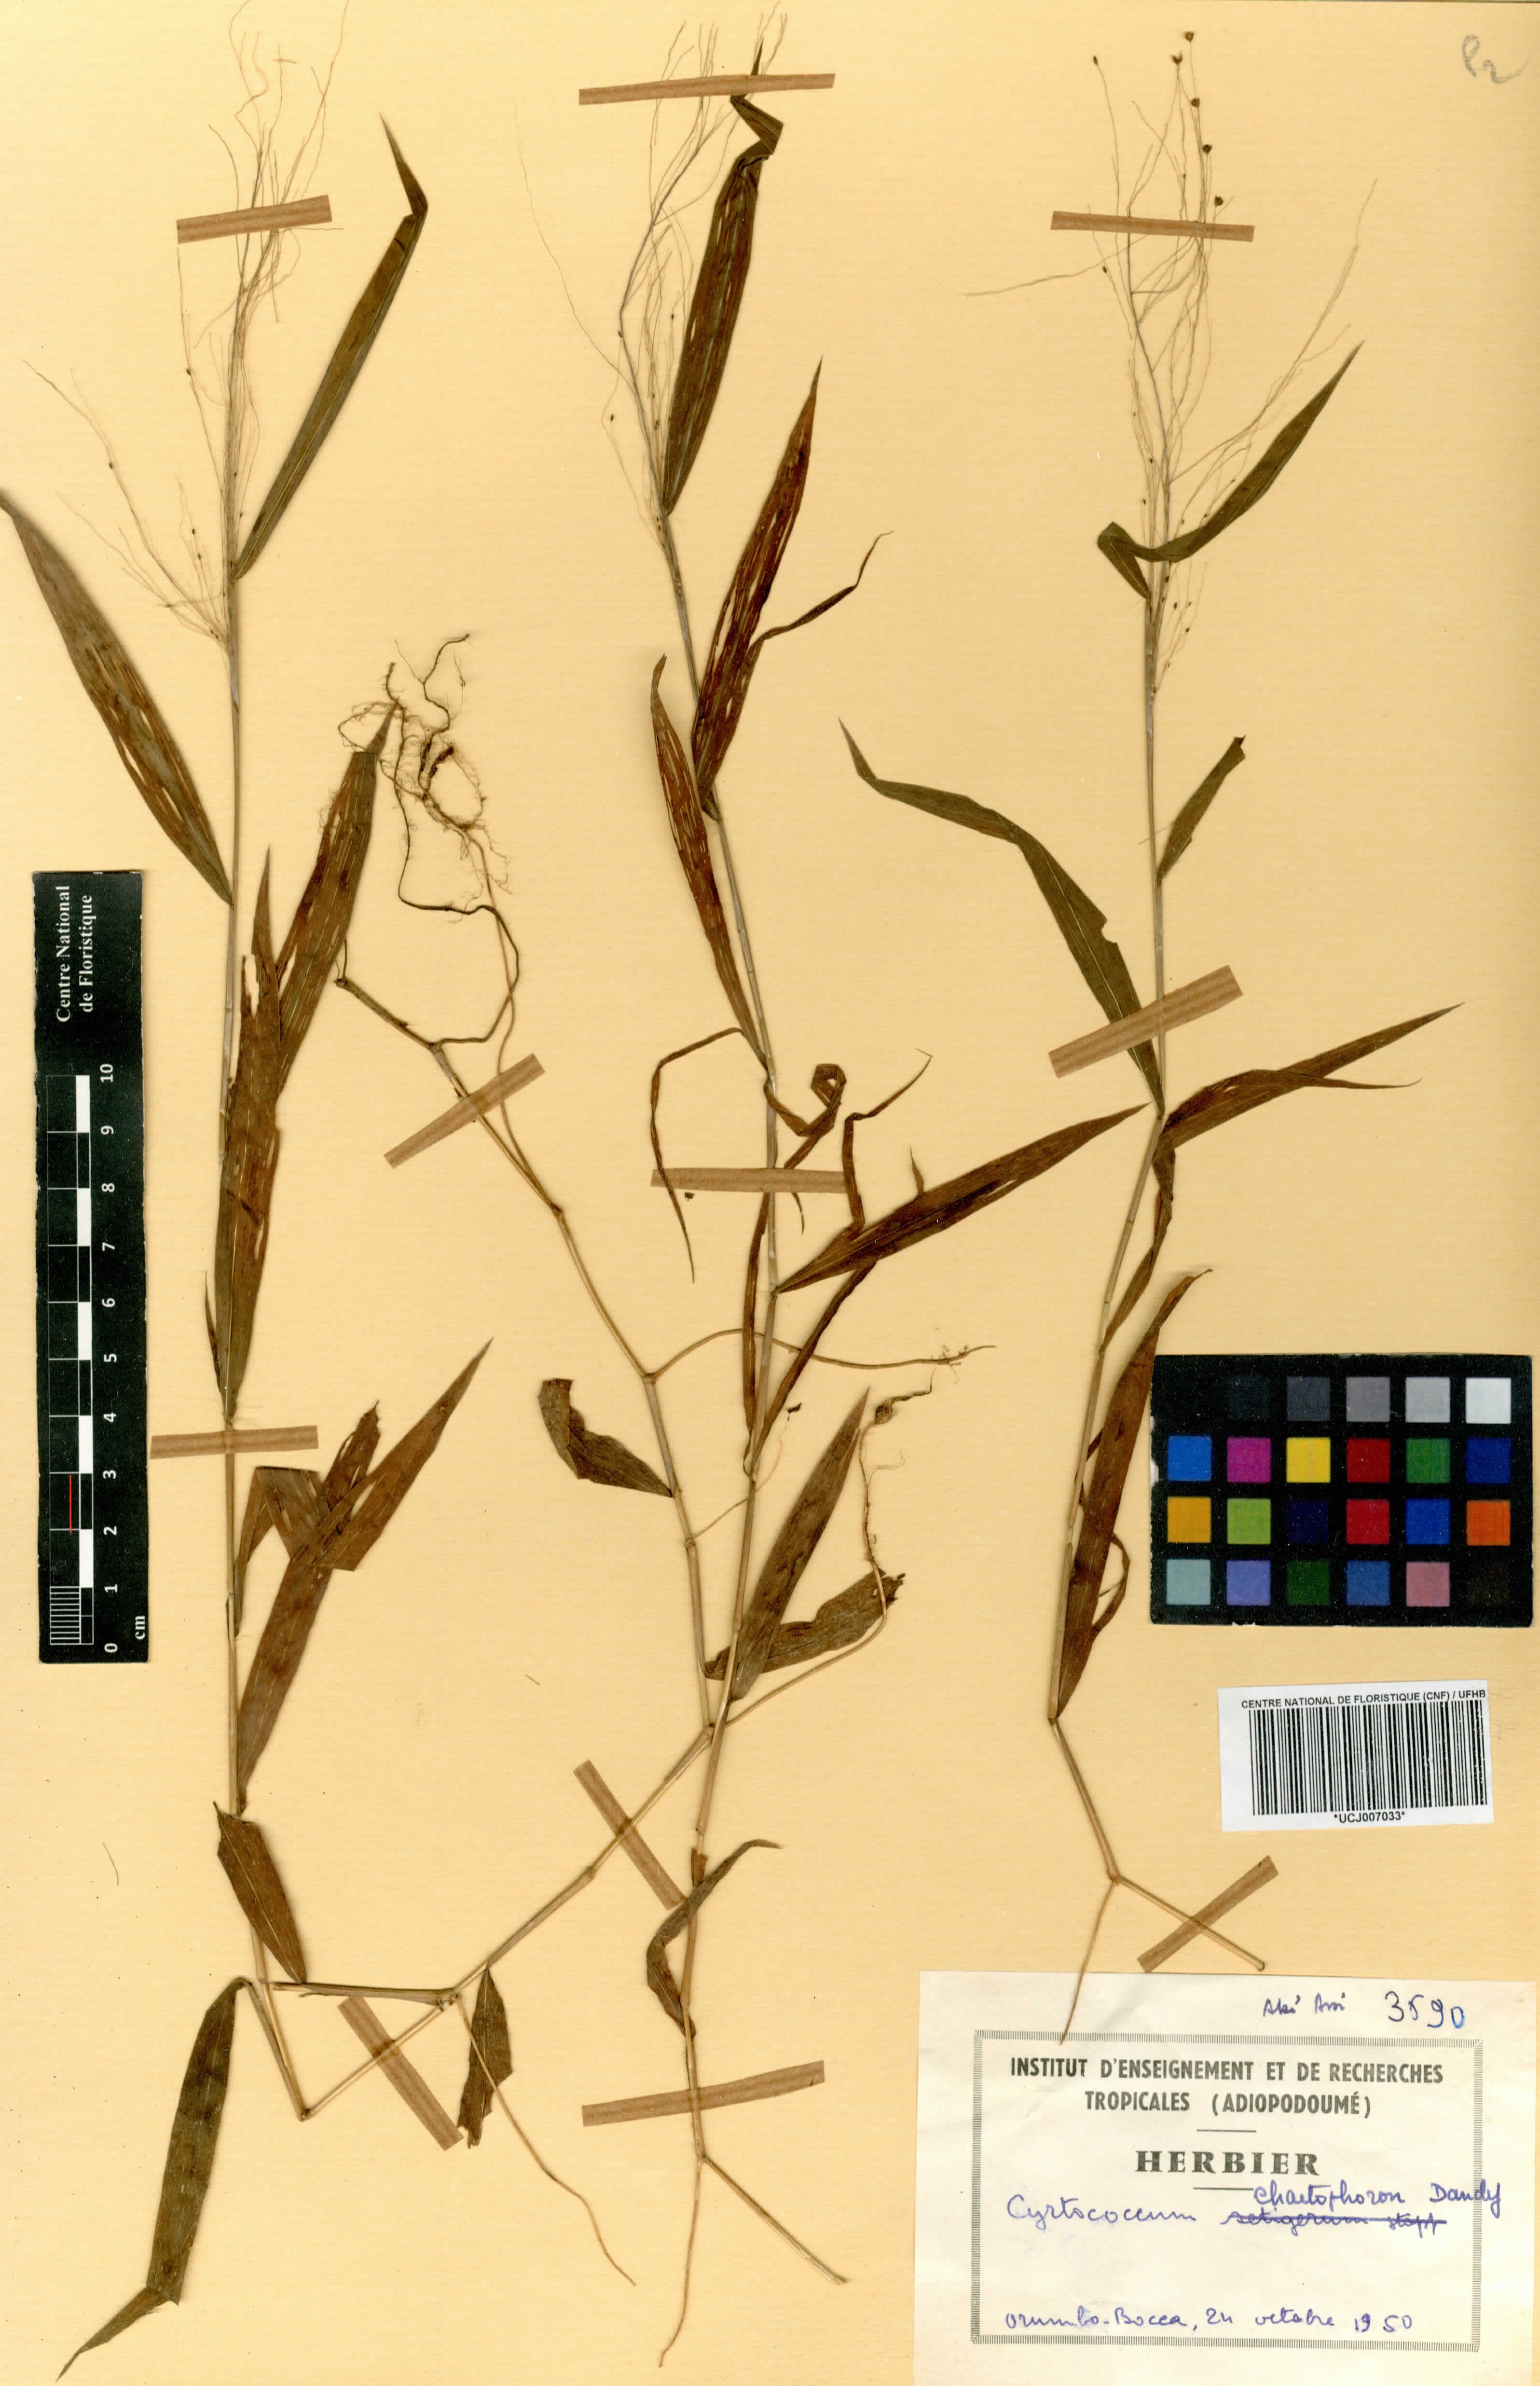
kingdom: Plantae
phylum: Tracheophyta
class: Liliopsida
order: Poales
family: Poaceae
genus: Cyrtococcum
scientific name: Cyrtococcum chaetophoron
